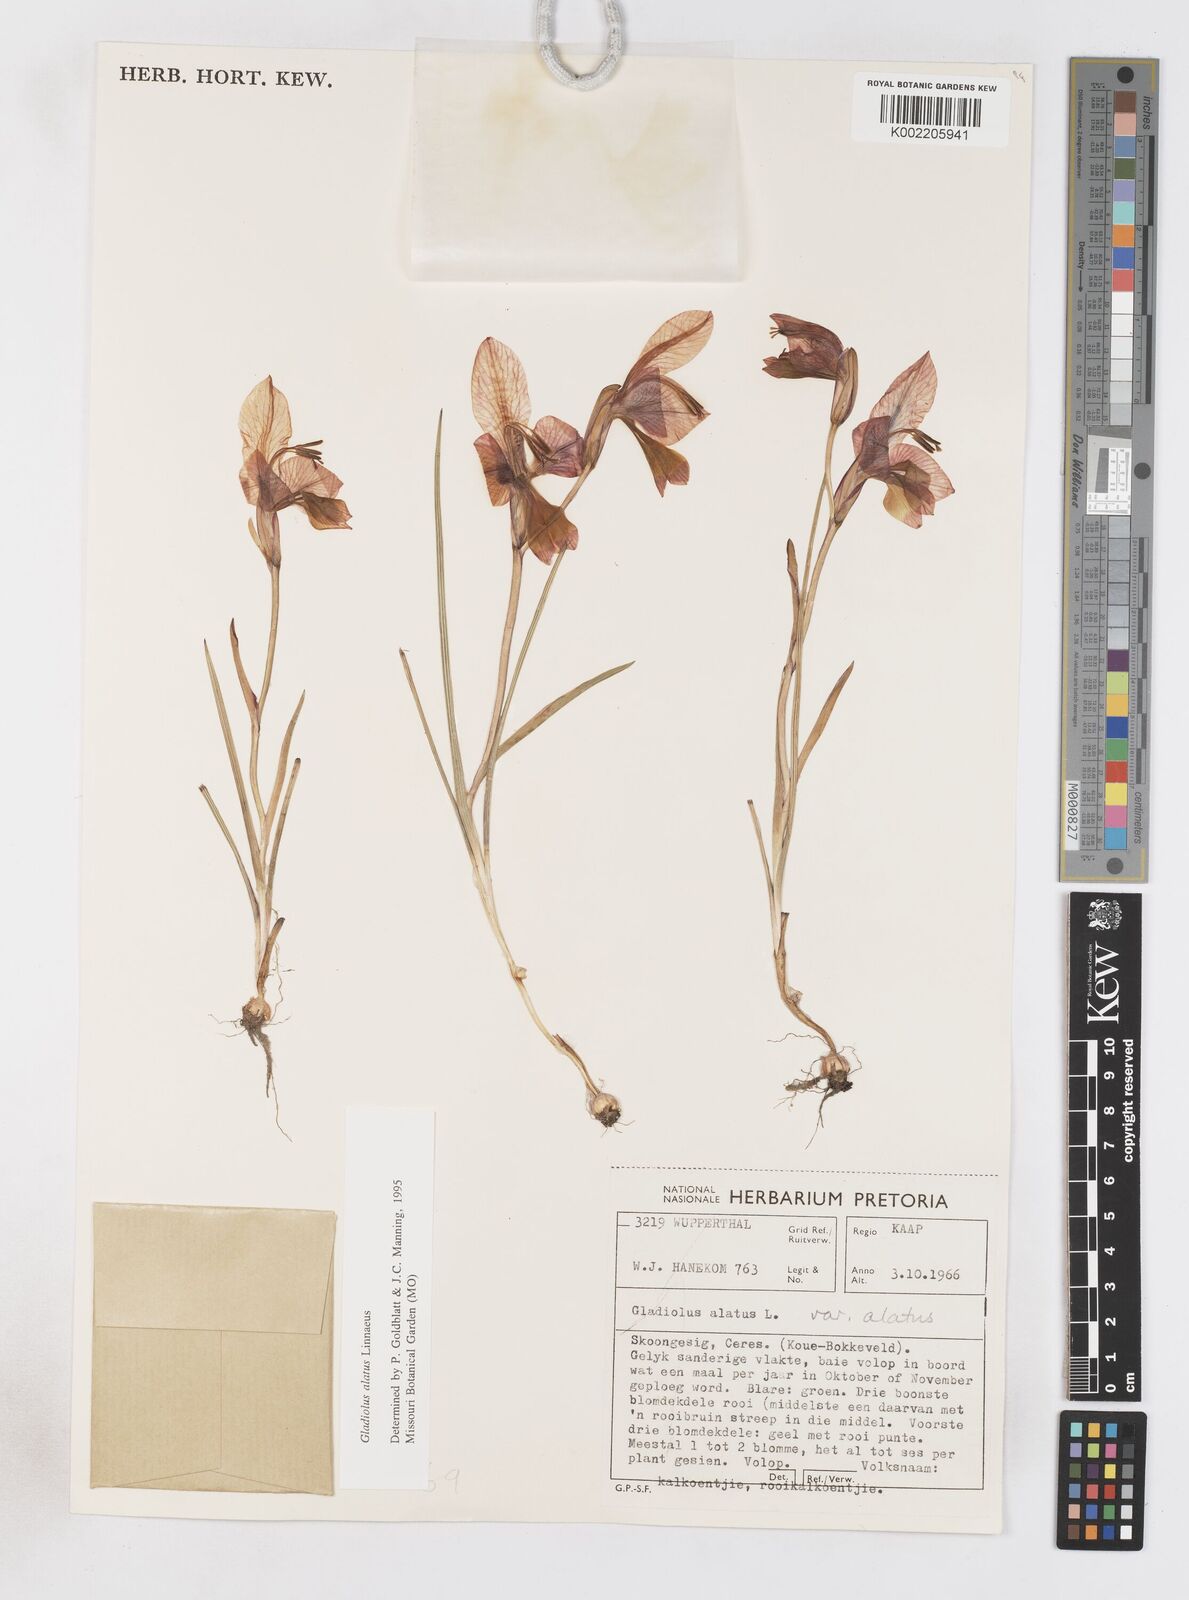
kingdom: Plantae
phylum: Tracheophyta
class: Liliopsida
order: Asparagales
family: Iridaceae
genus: Gladiolus
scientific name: Gladiolus alatus
